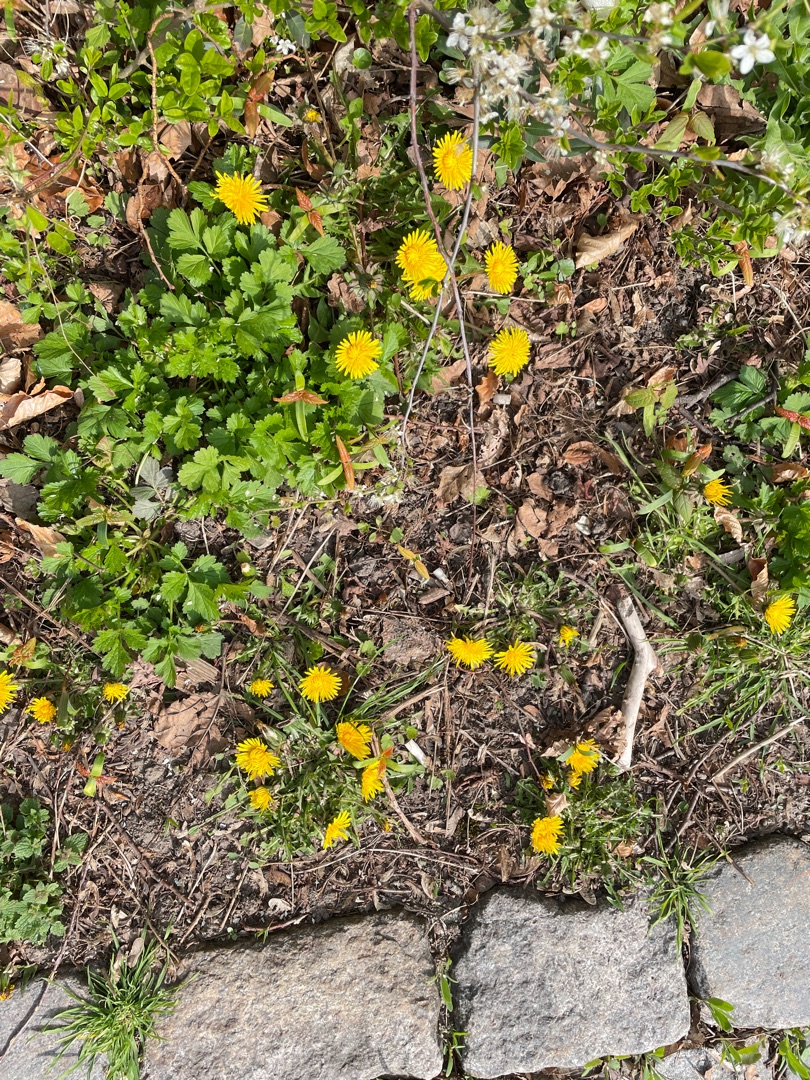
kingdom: Plantae
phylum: Tracheophyta
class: Magnoliopsida
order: Asterales
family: Asteraceae
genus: Taraxacum
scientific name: Taraxacum
